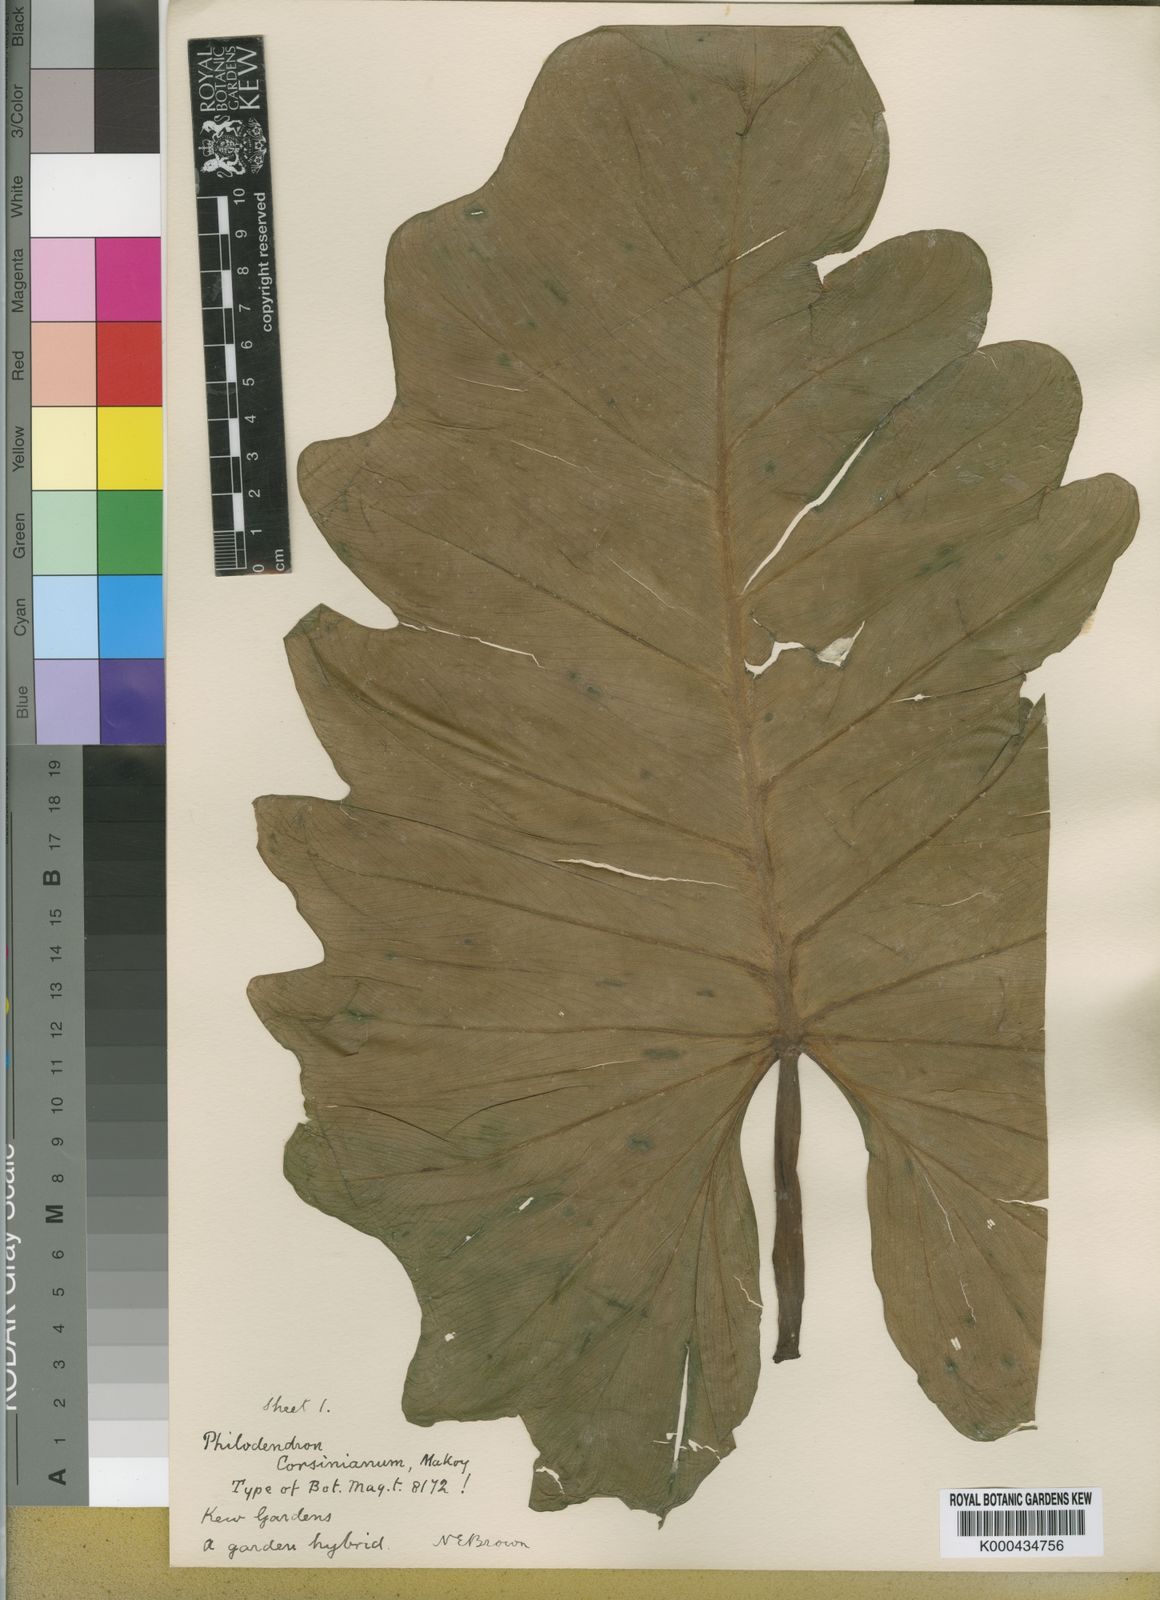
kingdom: Plantae
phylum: Tracheophyta
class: Liliopsida
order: Alismatales
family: Araceae
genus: Philodendron
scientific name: Philodendron
